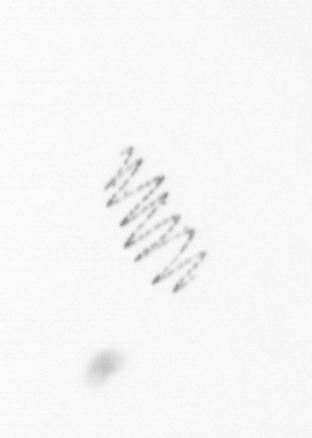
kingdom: Chromista
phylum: Ochrophyta
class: Bacillariophyceae
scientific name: Bacillariophyceae
